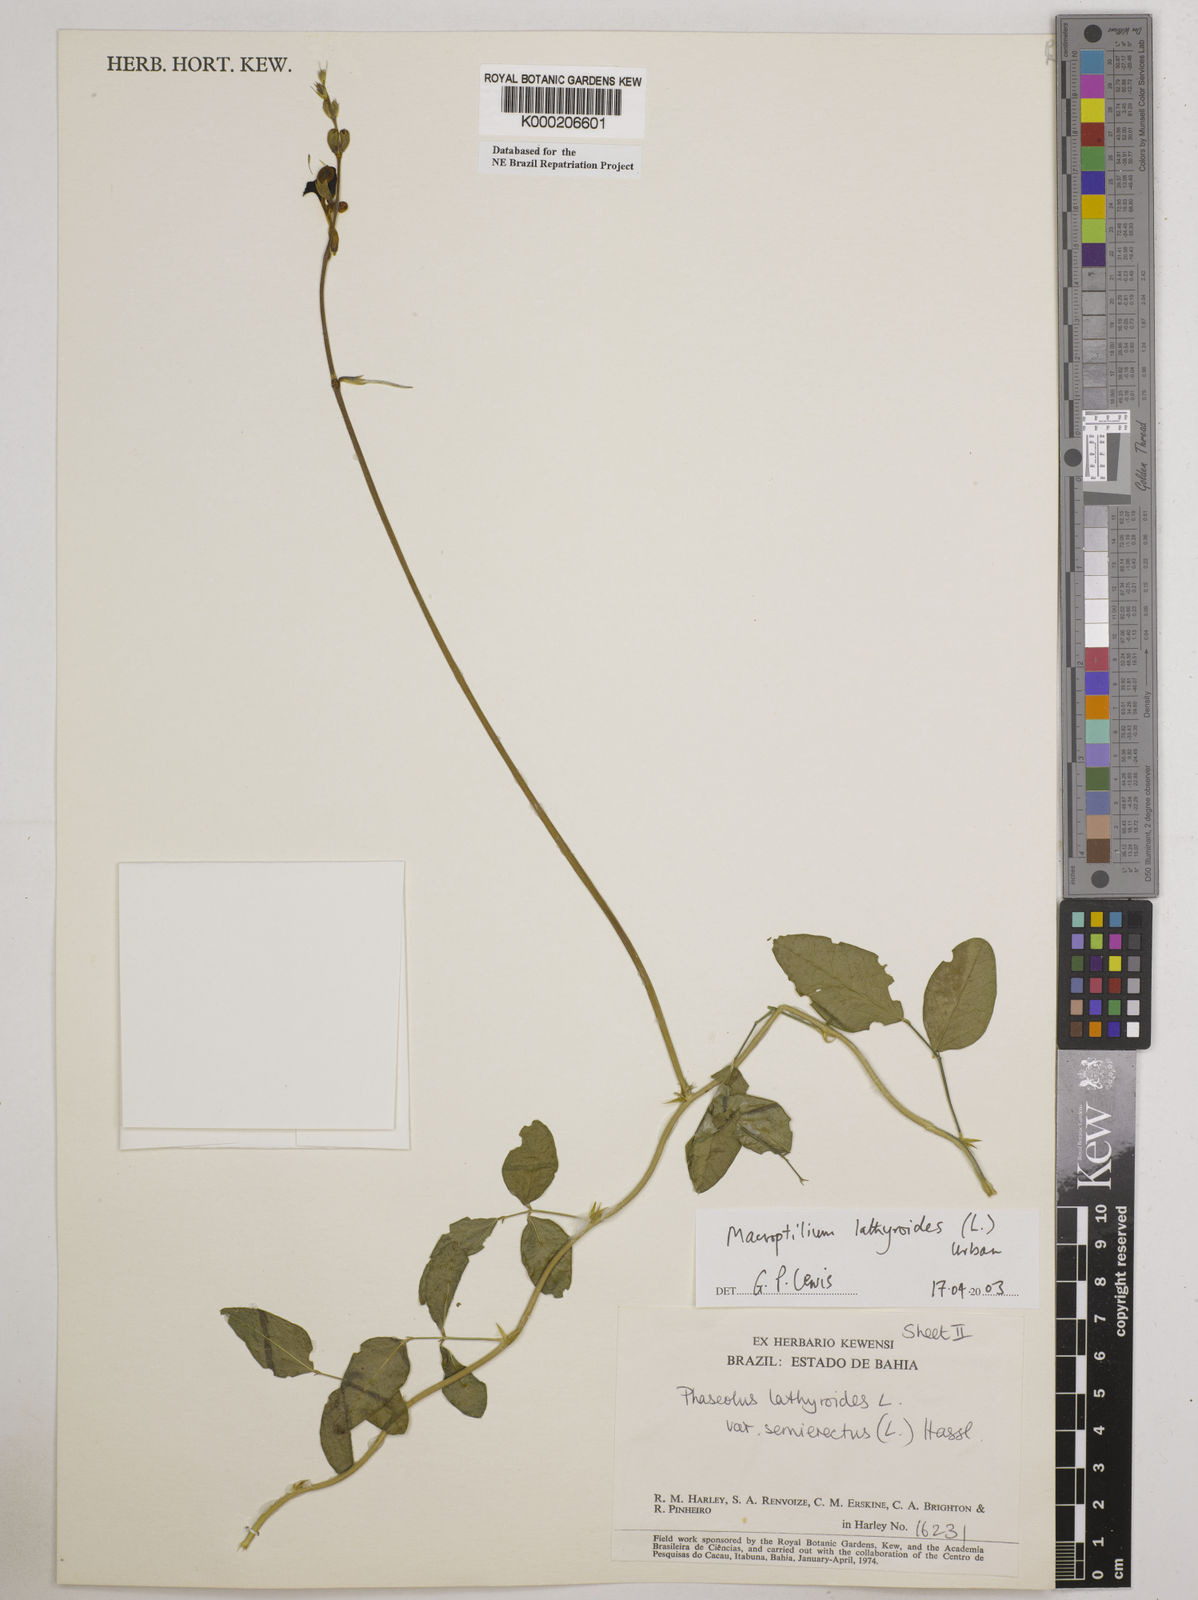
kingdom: Plantae
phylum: Tracheophyta
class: Magnoliopsida
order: Fabales
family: Fabaceae
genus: Macroptilium
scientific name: Macroptilium lathyroides
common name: Wild bushbean
